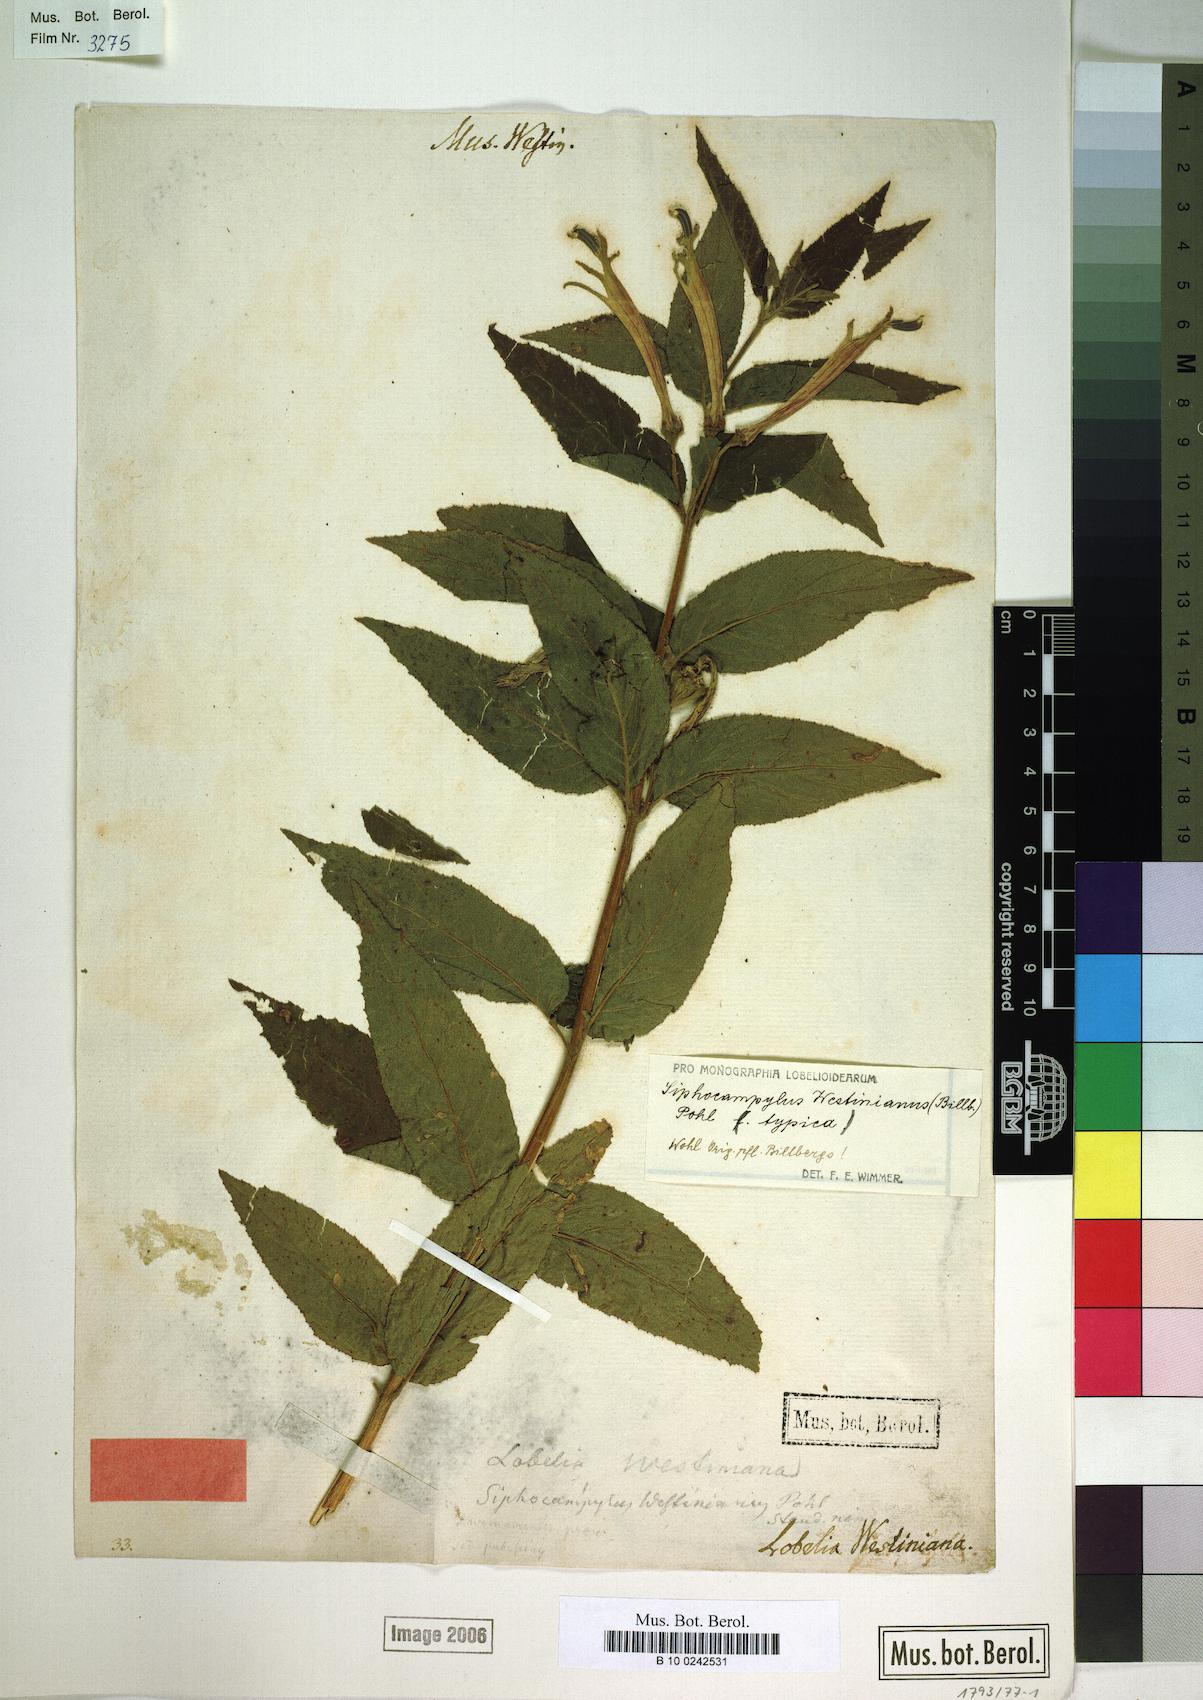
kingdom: Plantae
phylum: Tracheophyta
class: Magnoliopsida
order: Asterales
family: Campanulaceae
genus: Siphocampylus
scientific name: Siphocampylus westinianus
